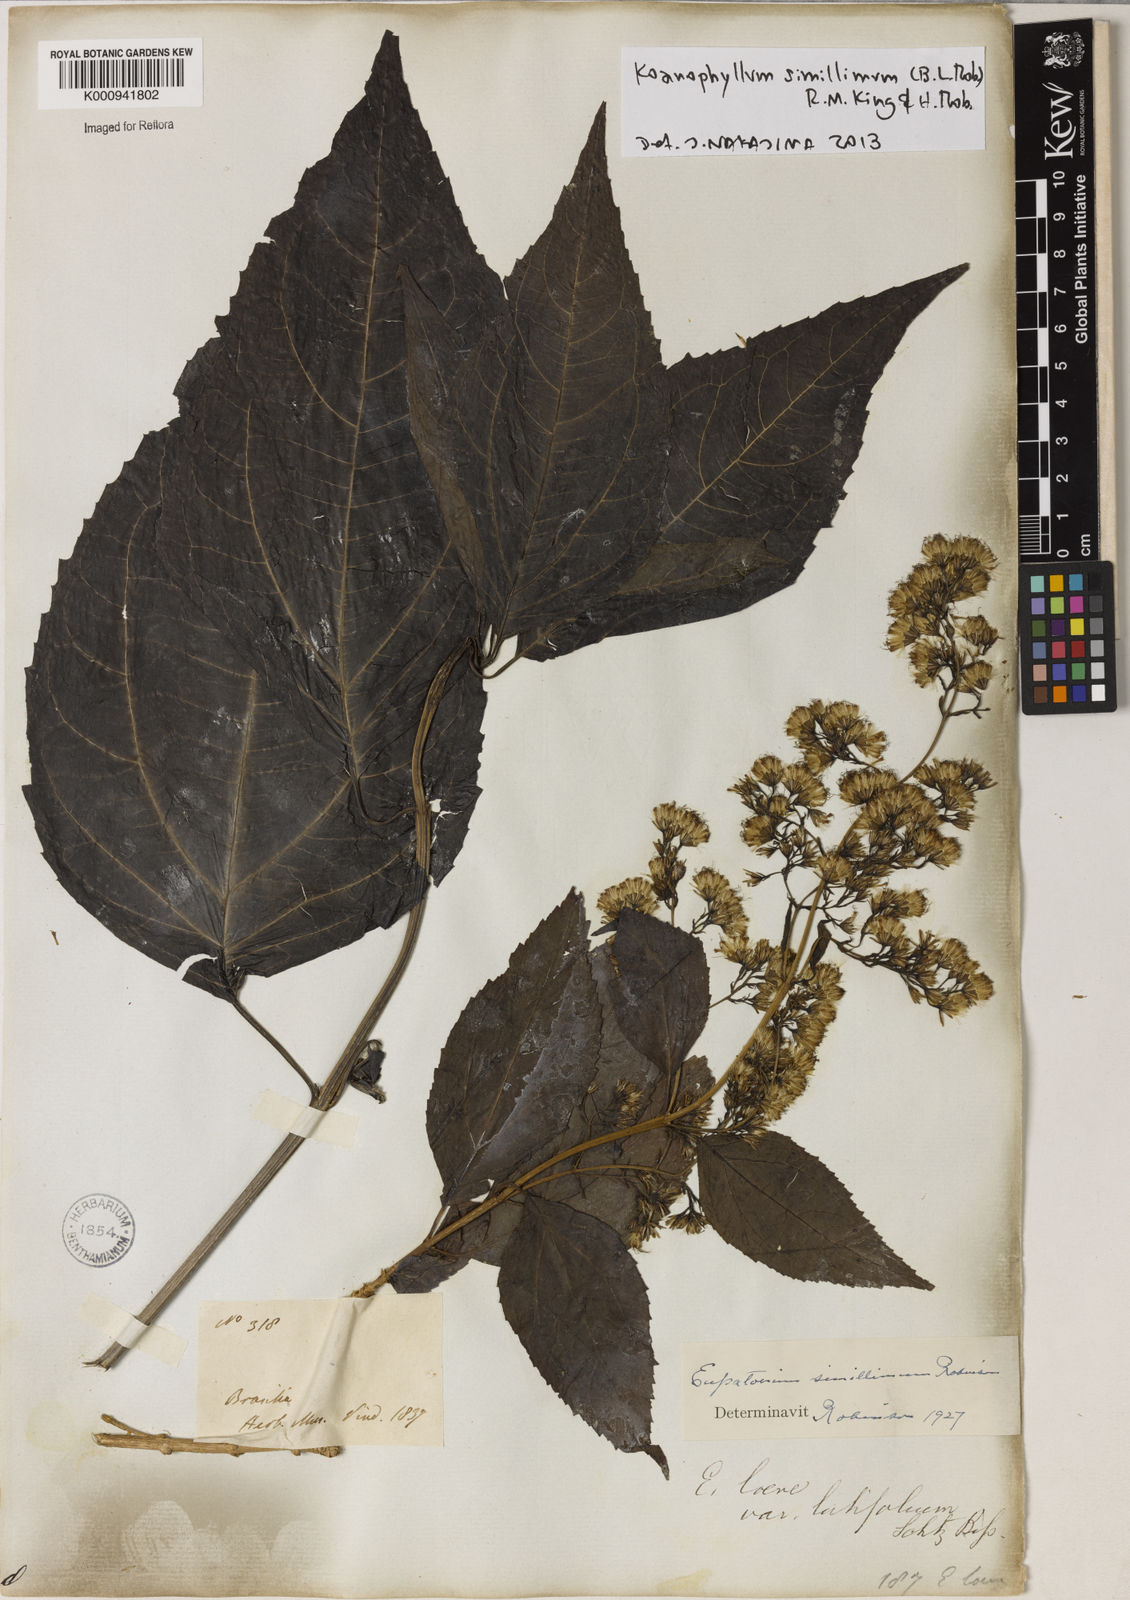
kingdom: Plantae
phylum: Tracheophyta
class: Magnoliopsida
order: Asterales
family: Asteraceae
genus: Koanophyllon
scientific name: Koanophyllon simillimum
